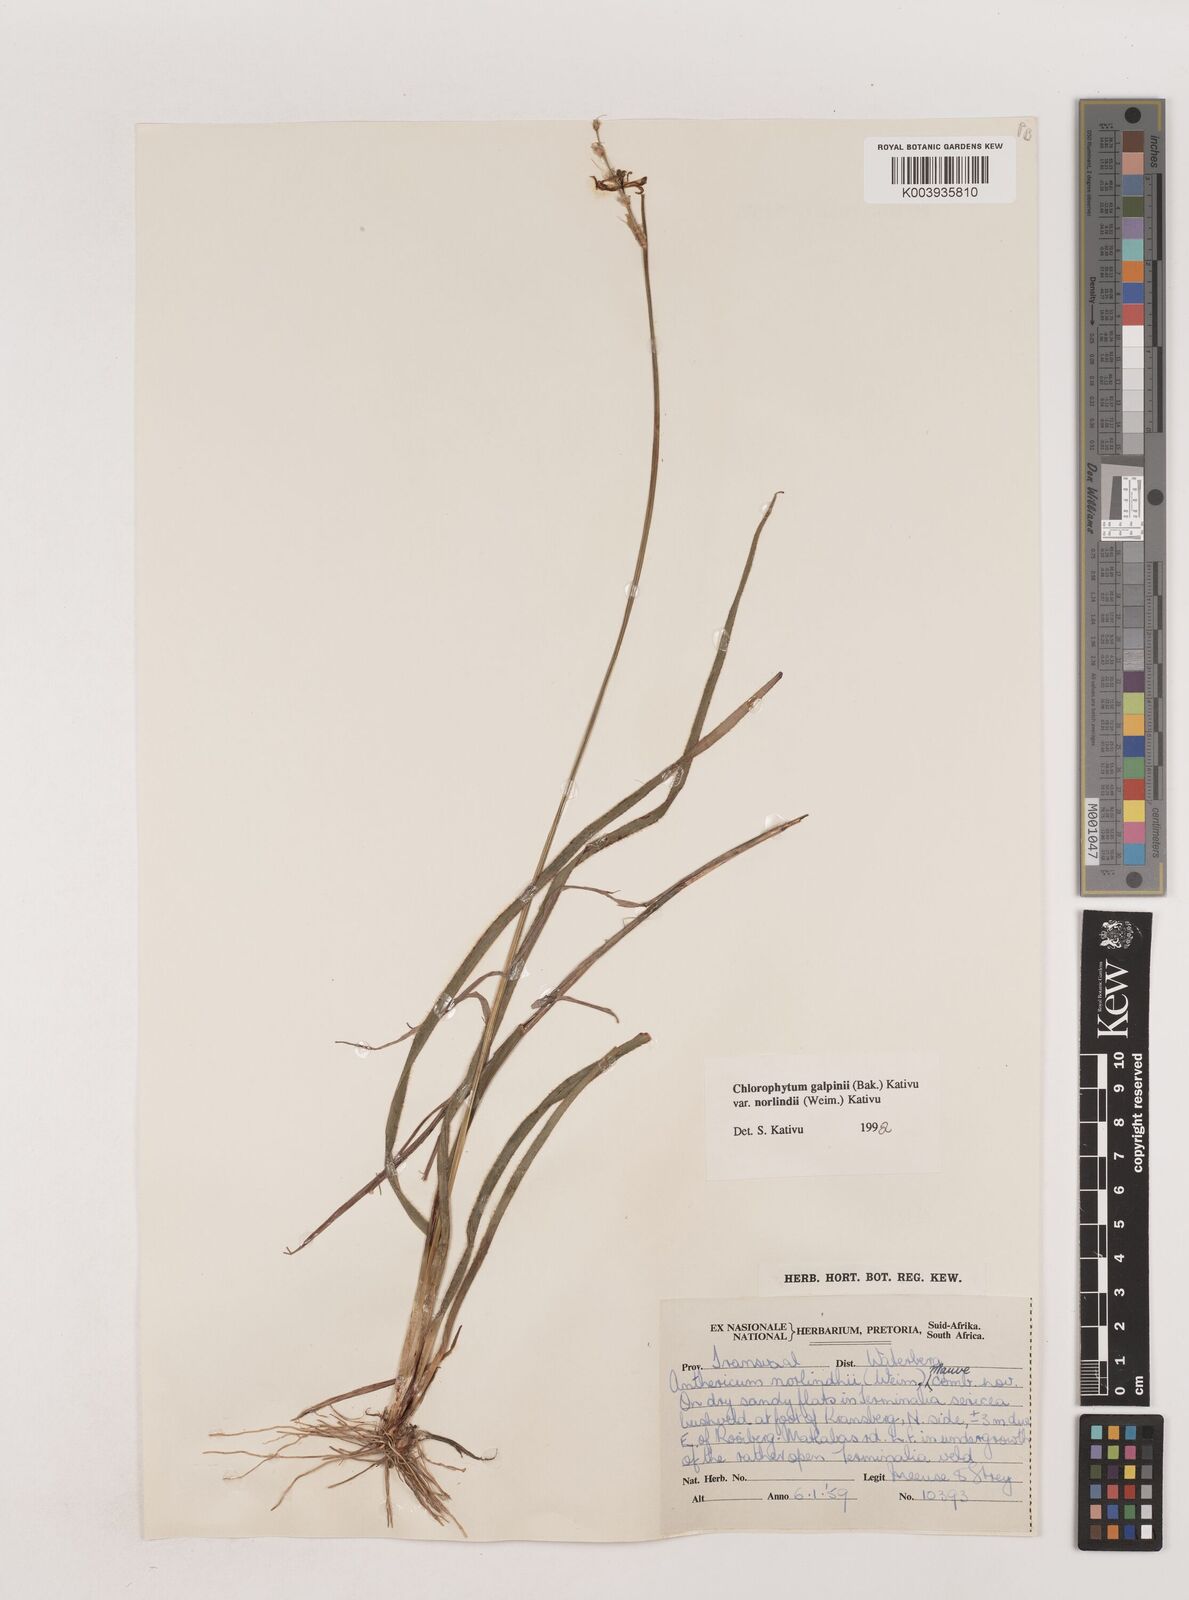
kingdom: Plantae
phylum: Tracheophyta
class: Liliopsida
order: Asparagales
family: Asparagaceae
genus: Chlorophytum
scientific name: Chlorophytum galpinii
